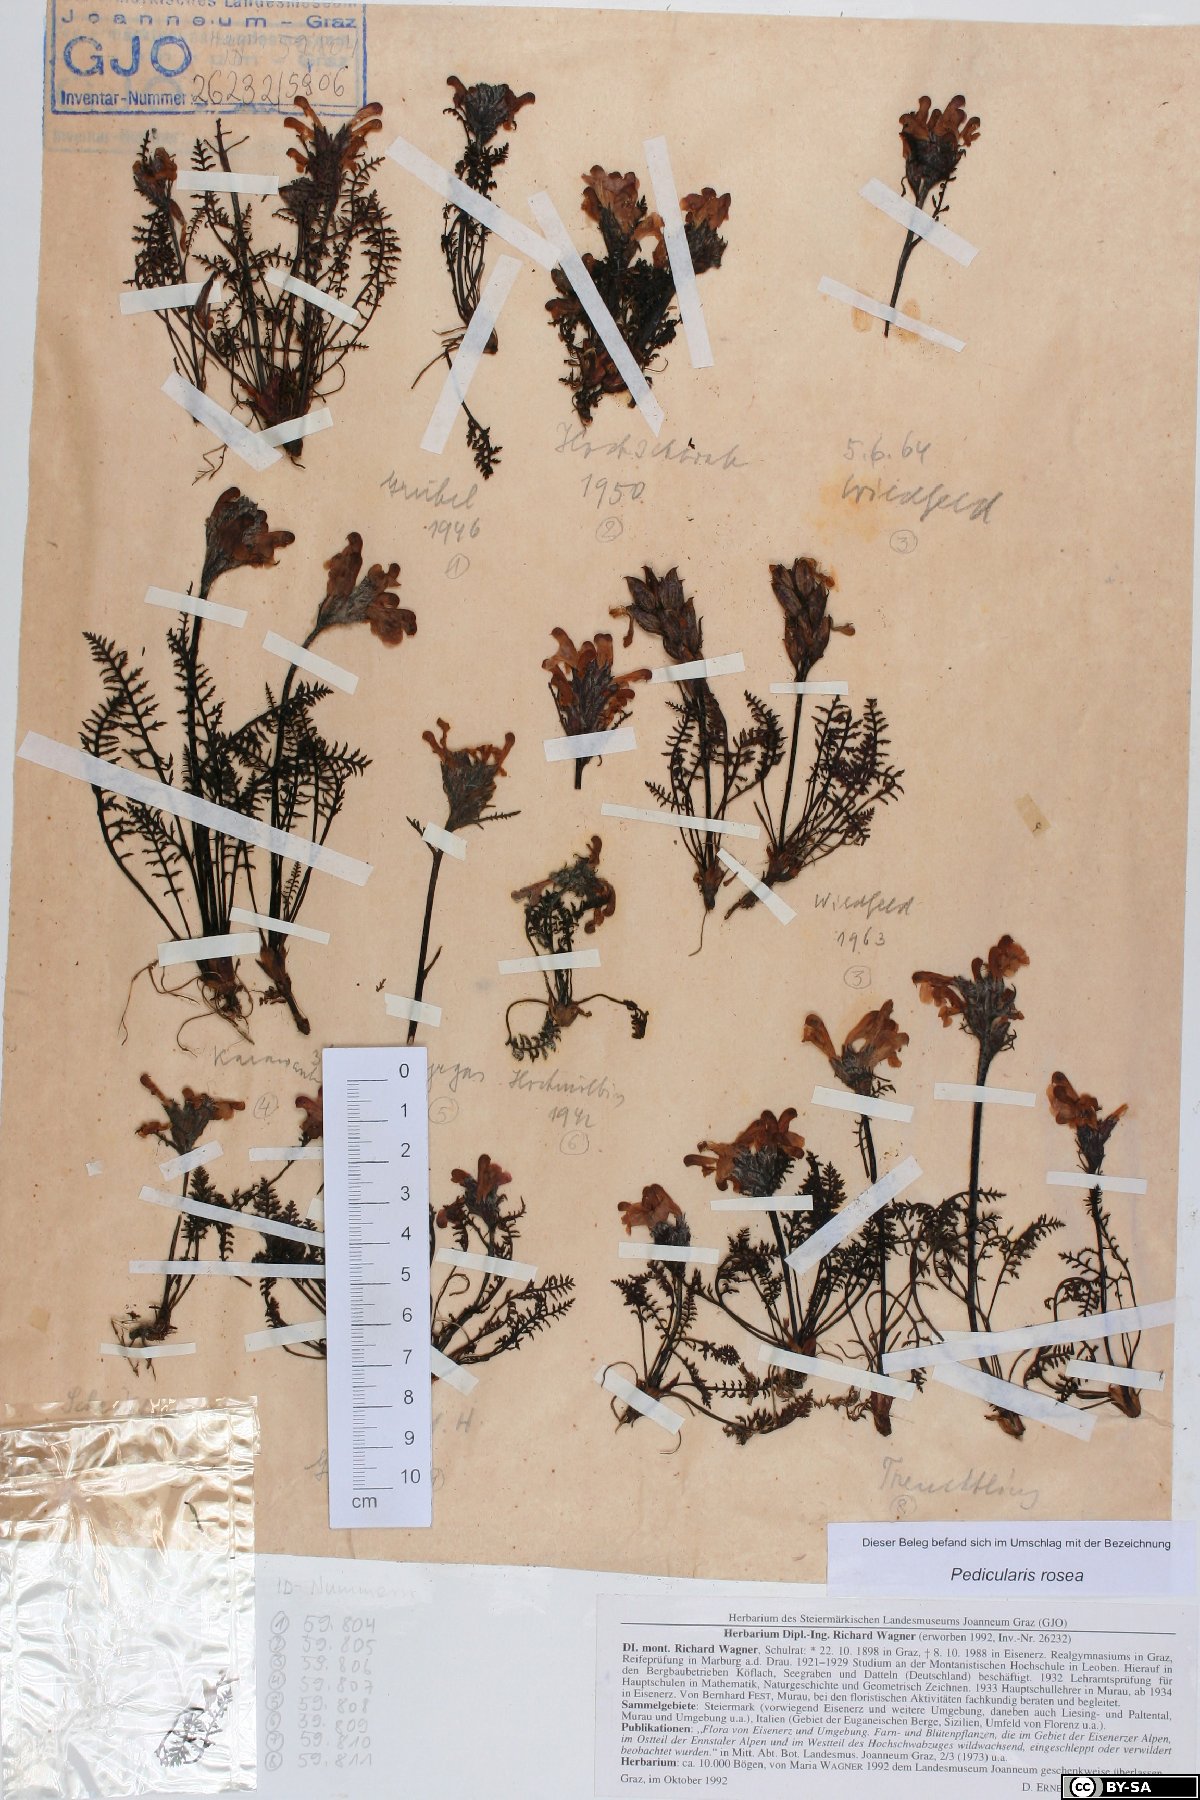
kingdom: Plantae
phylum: Tracheophyta
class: Magnoliopsida
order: Lamiales
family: Orobanchaceae
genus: Pedicularis
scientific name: Pedicularis rosea
